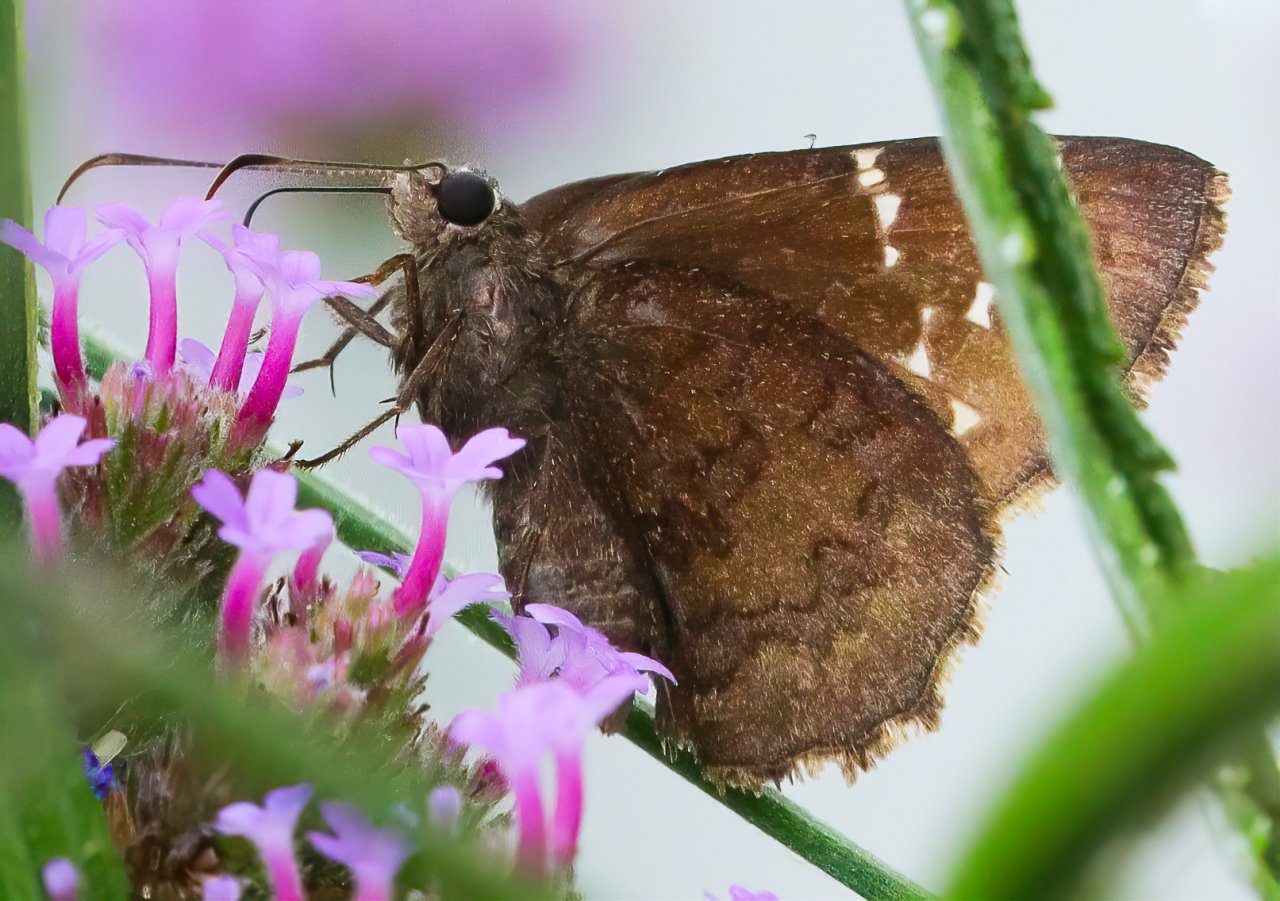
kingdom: Animalia
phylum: Arthropoda
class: Insecta
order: Lepidoptera
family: Hesperiidae
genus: Autochton
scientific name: Autochton
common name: Southern Cloudywing
